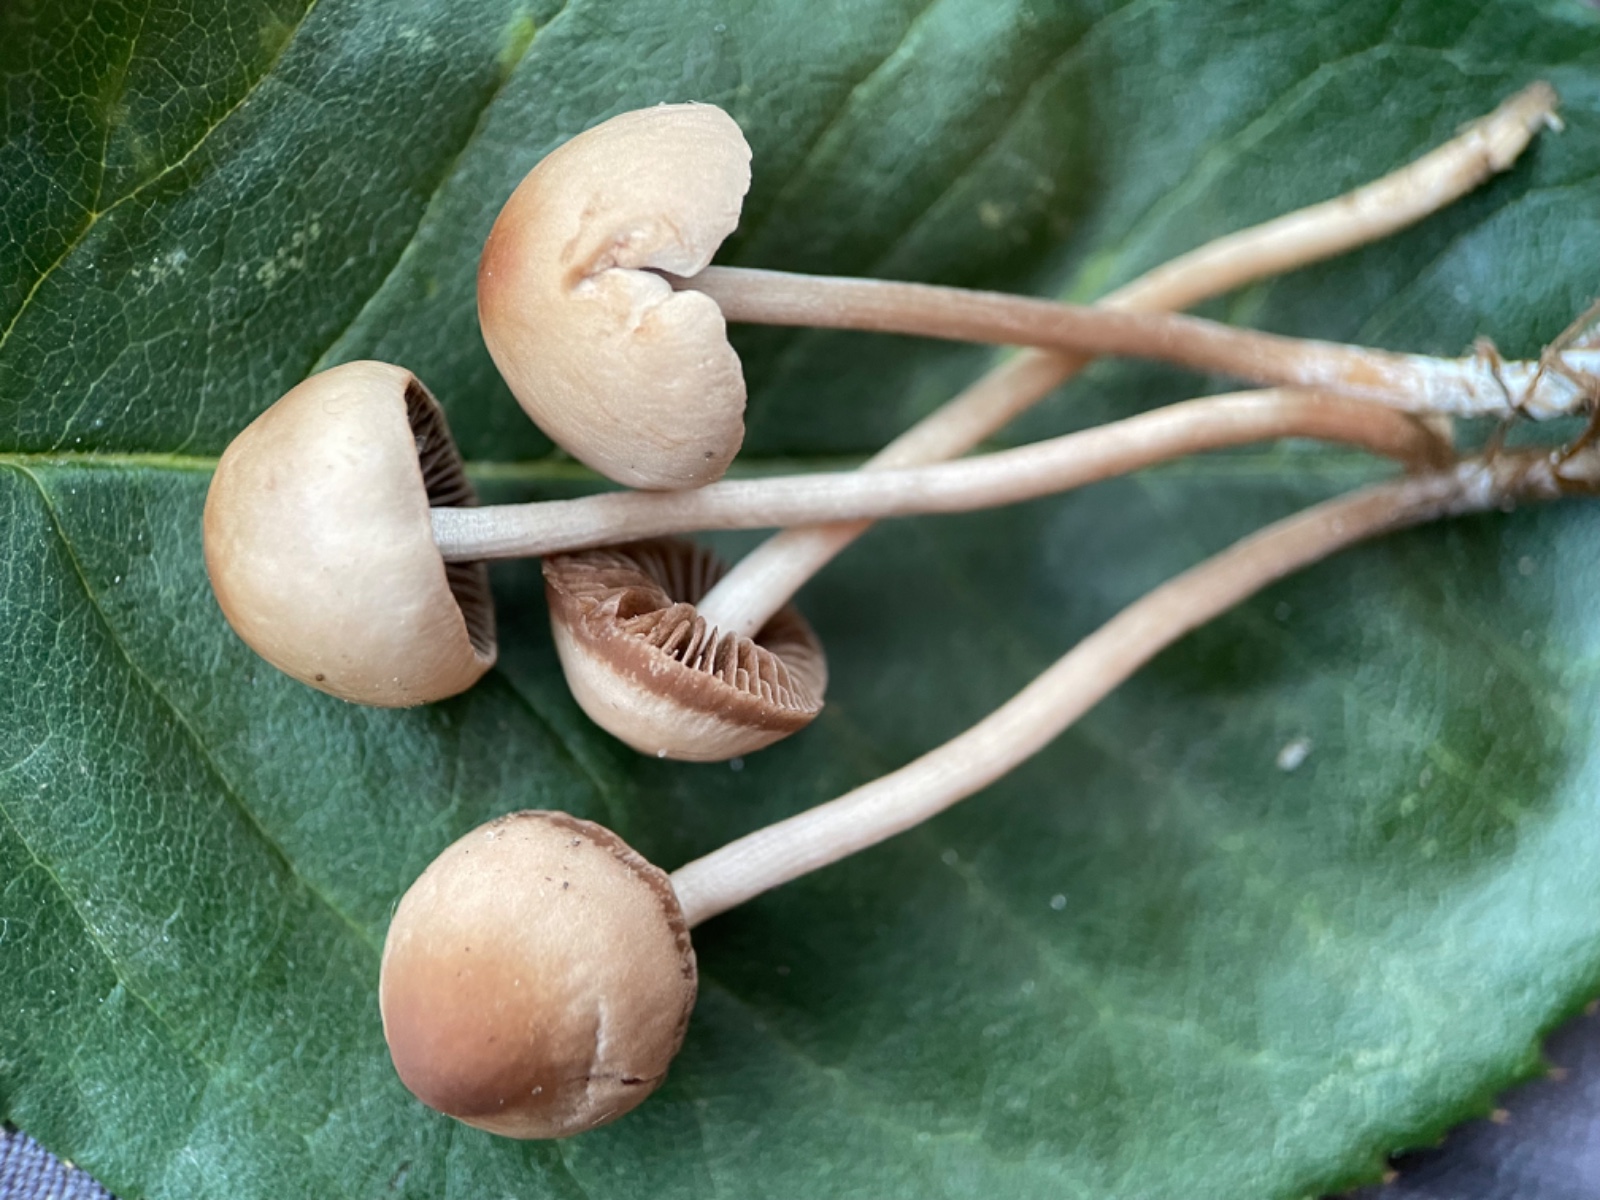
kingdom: Fungi
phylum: Basidiomycota
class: Agaricomycetes
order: Agaricales
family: Bolbitiaceae
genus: Panaeolina
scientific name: Panaeolina foenisecii
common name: høslætsvamp
